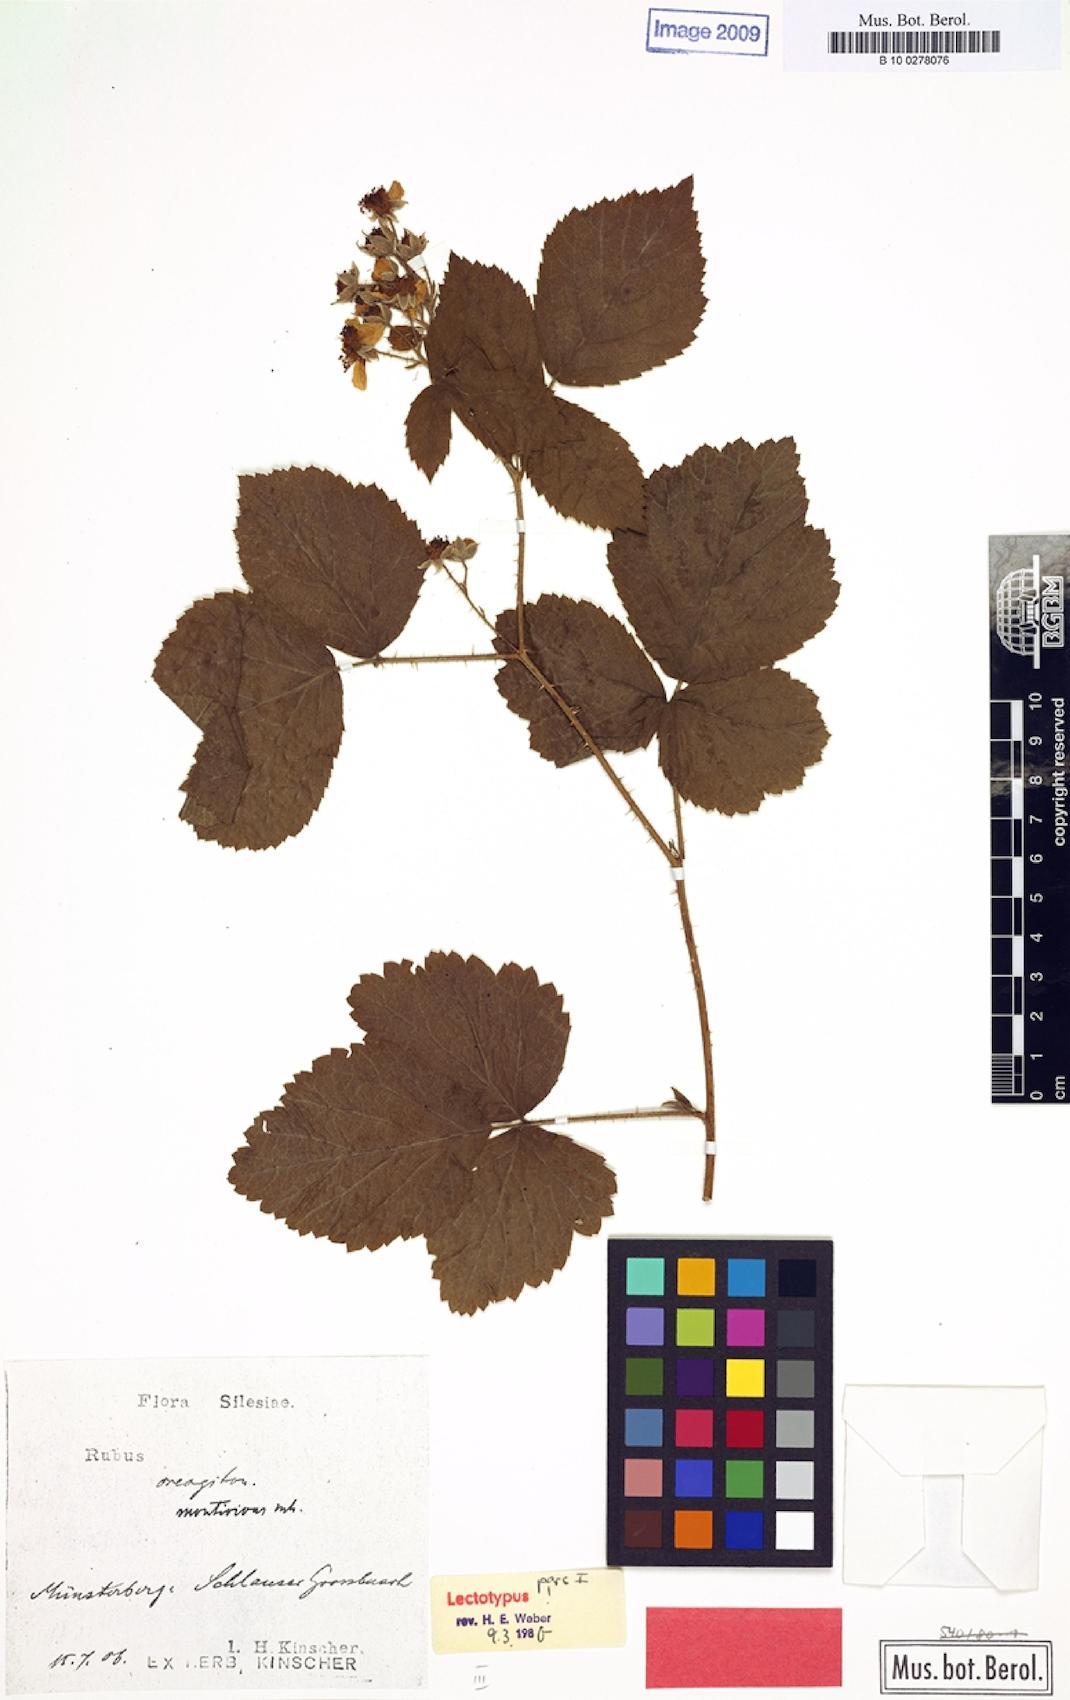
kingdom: Plantae
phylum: Tracheophyta
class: Magnoliopsida
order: Rosales
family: Rosaceae
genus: Rubus
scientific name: Rubus dollnensis
